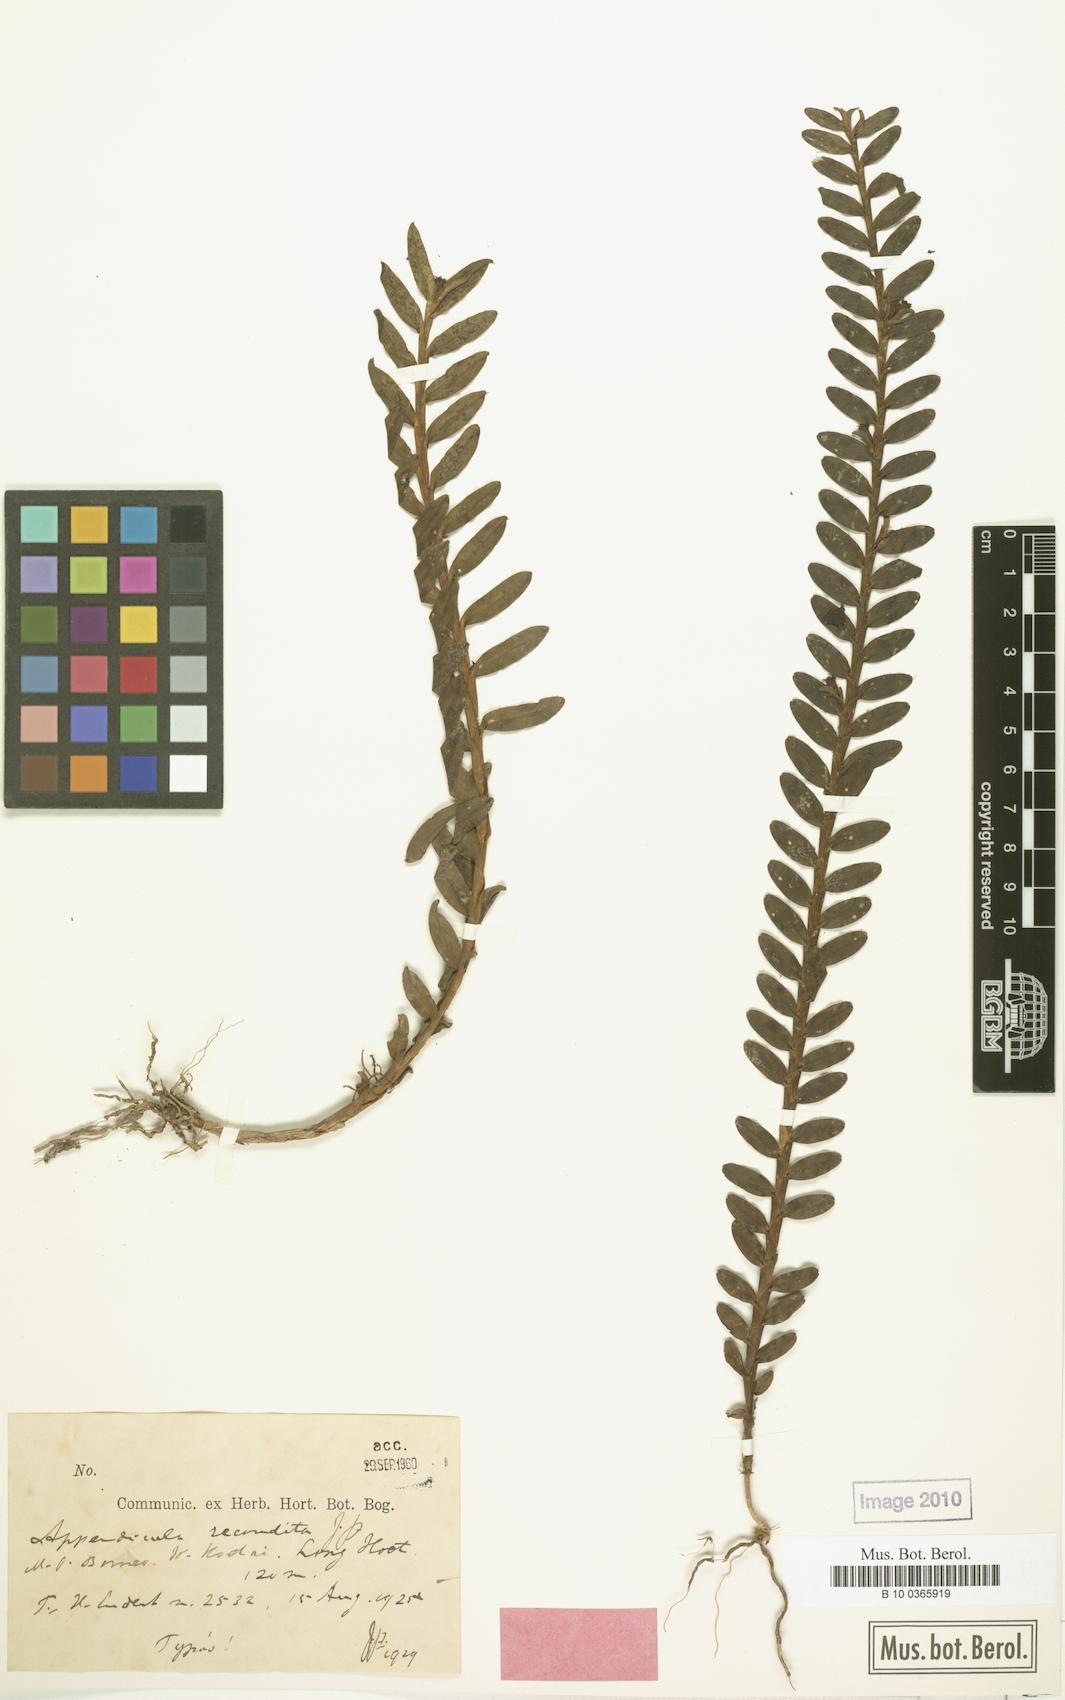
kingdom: Plantae
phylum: Tracheophyta
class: Liliopsida
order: Asparagales
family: Orchidaceae
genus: Appendicula
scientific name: Appendicula recondita
